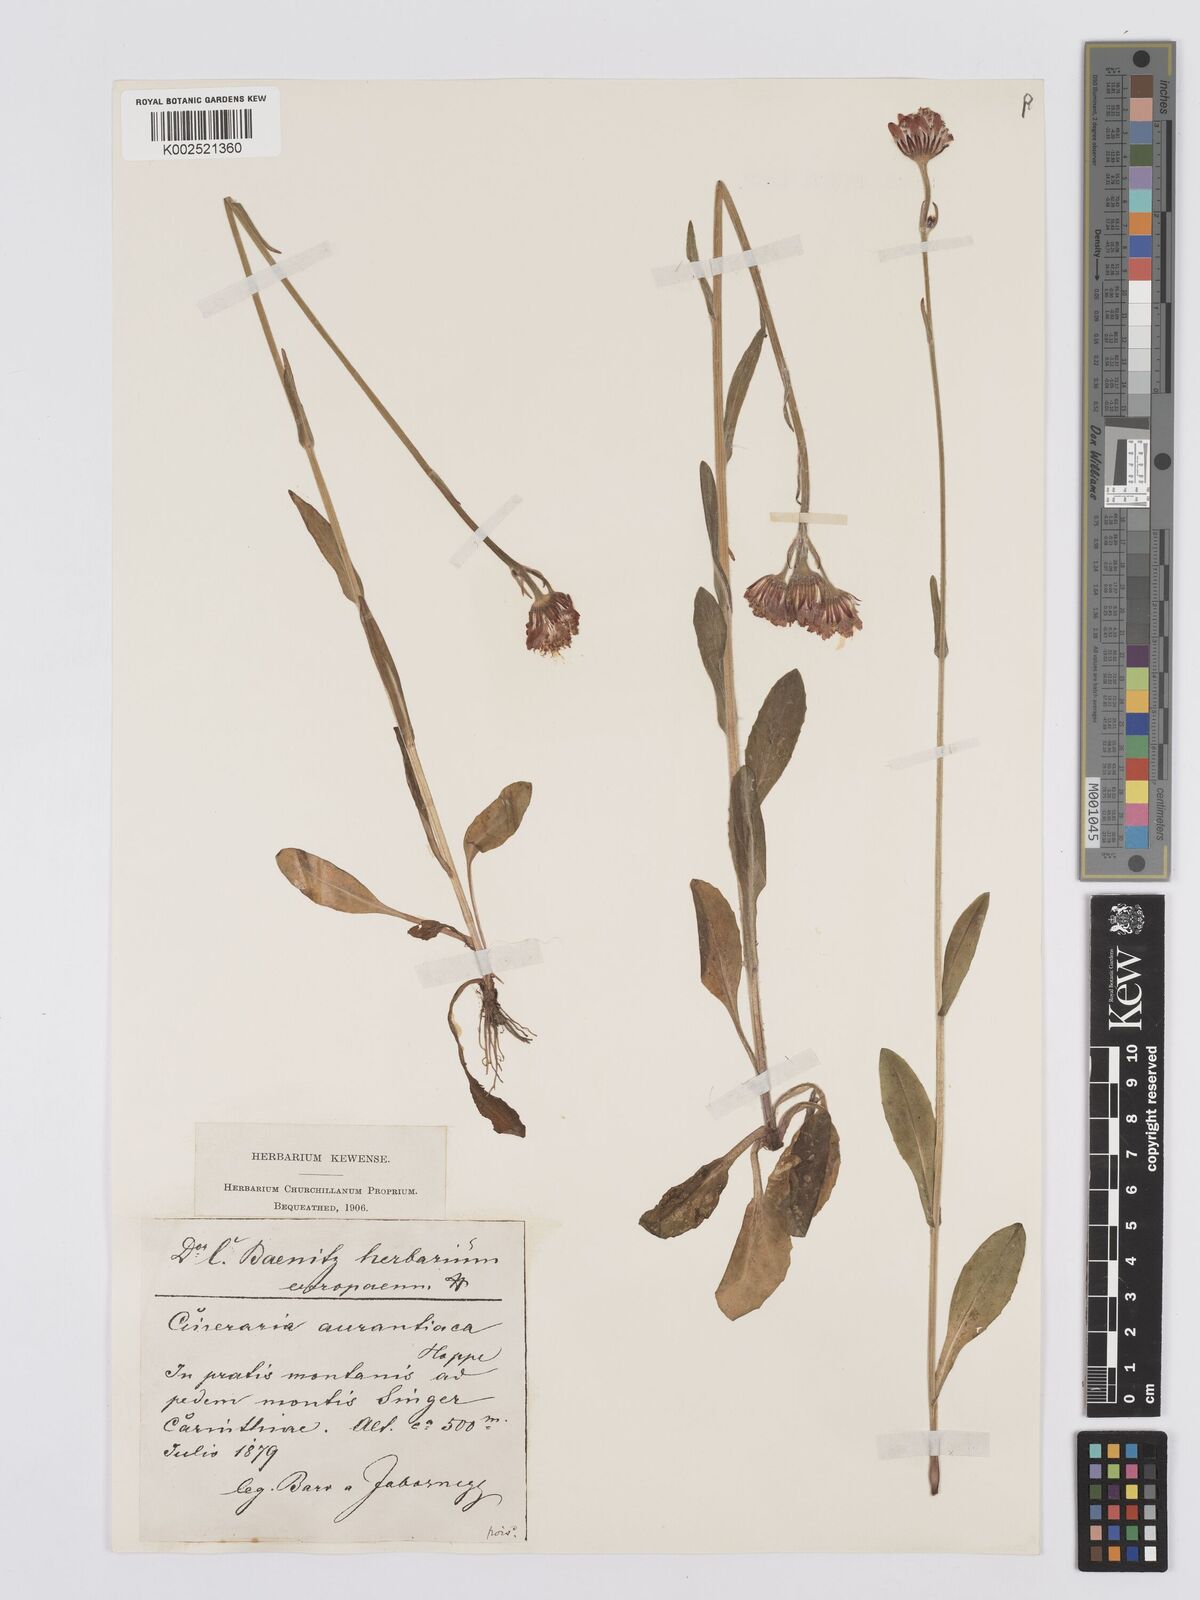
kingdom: Plantae
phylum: Tracheophyta
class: Magnoliopsida
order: Asterales
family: Asteraceae
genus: Tephroseris
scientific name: Tephroseris aurantiaca
